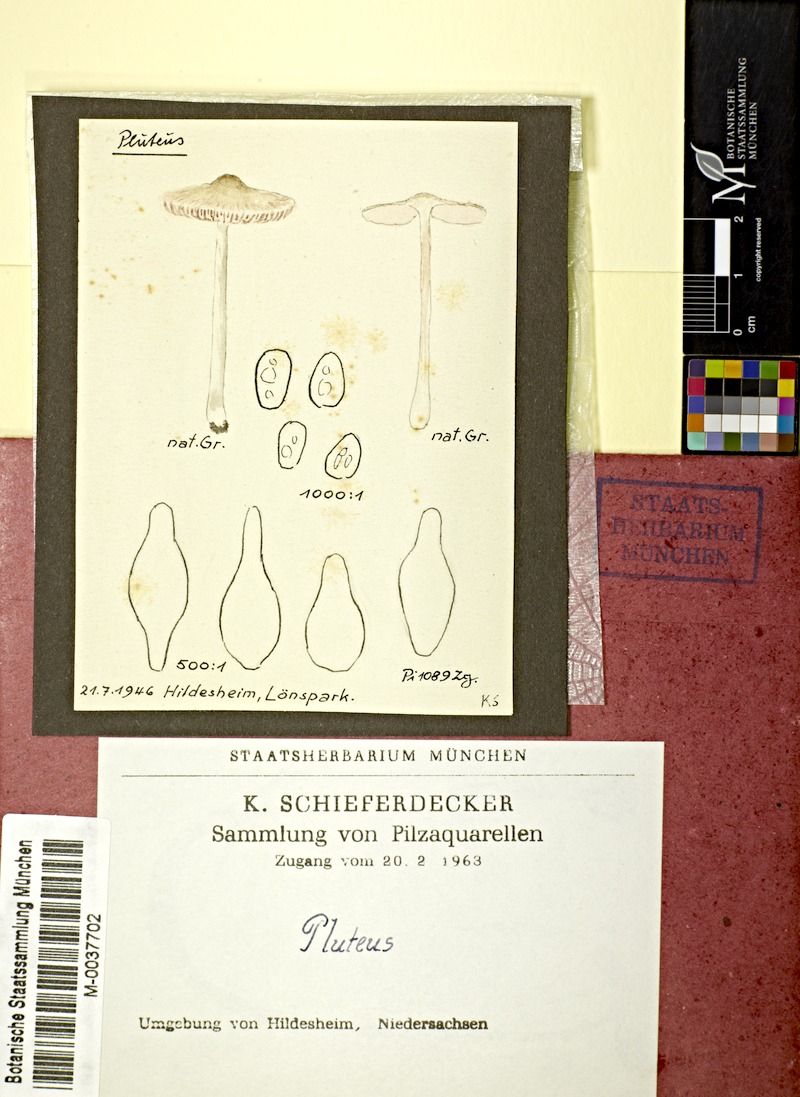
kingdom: Fungi
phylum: Basidiomycota
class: Agaricomycetes
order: Agaricales
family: Pluteaceae
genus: Pluteus
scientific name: Pluteus
